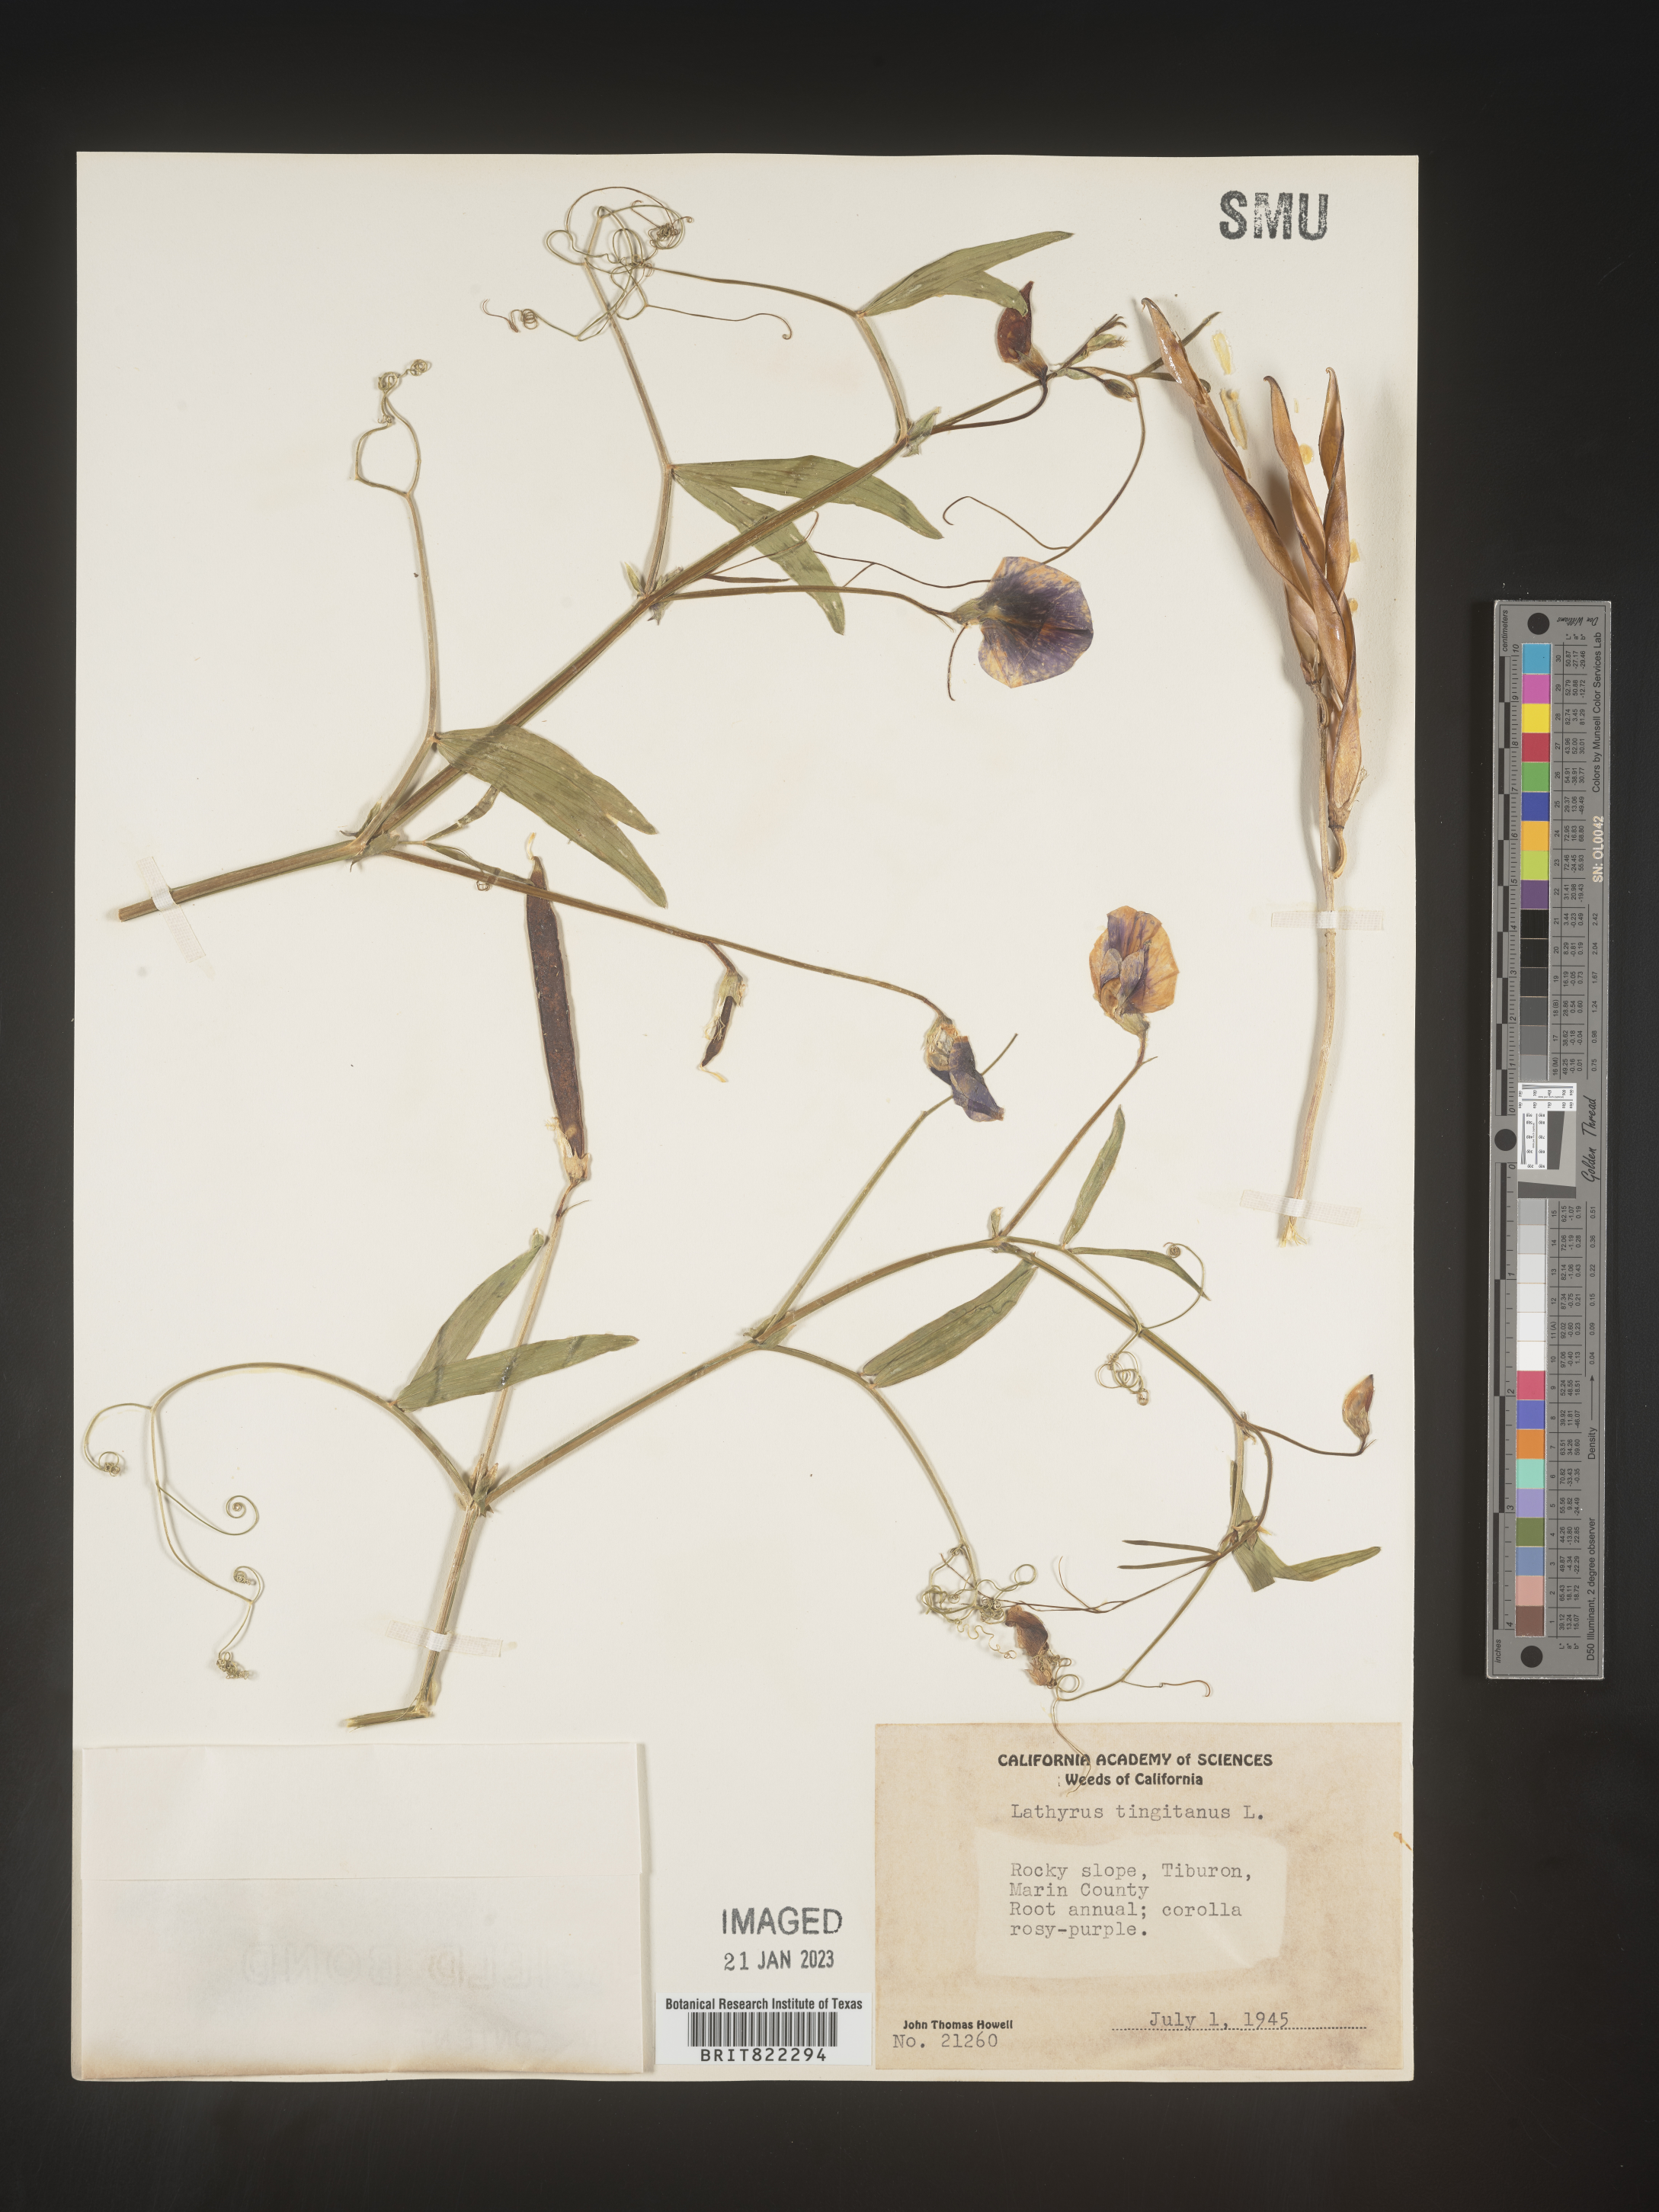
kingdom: Plantae
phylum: Tracheophyta
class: Magnoliopsida
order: Fabales
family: Fabaceae
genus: Lathyrus
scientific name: Lathyrus
